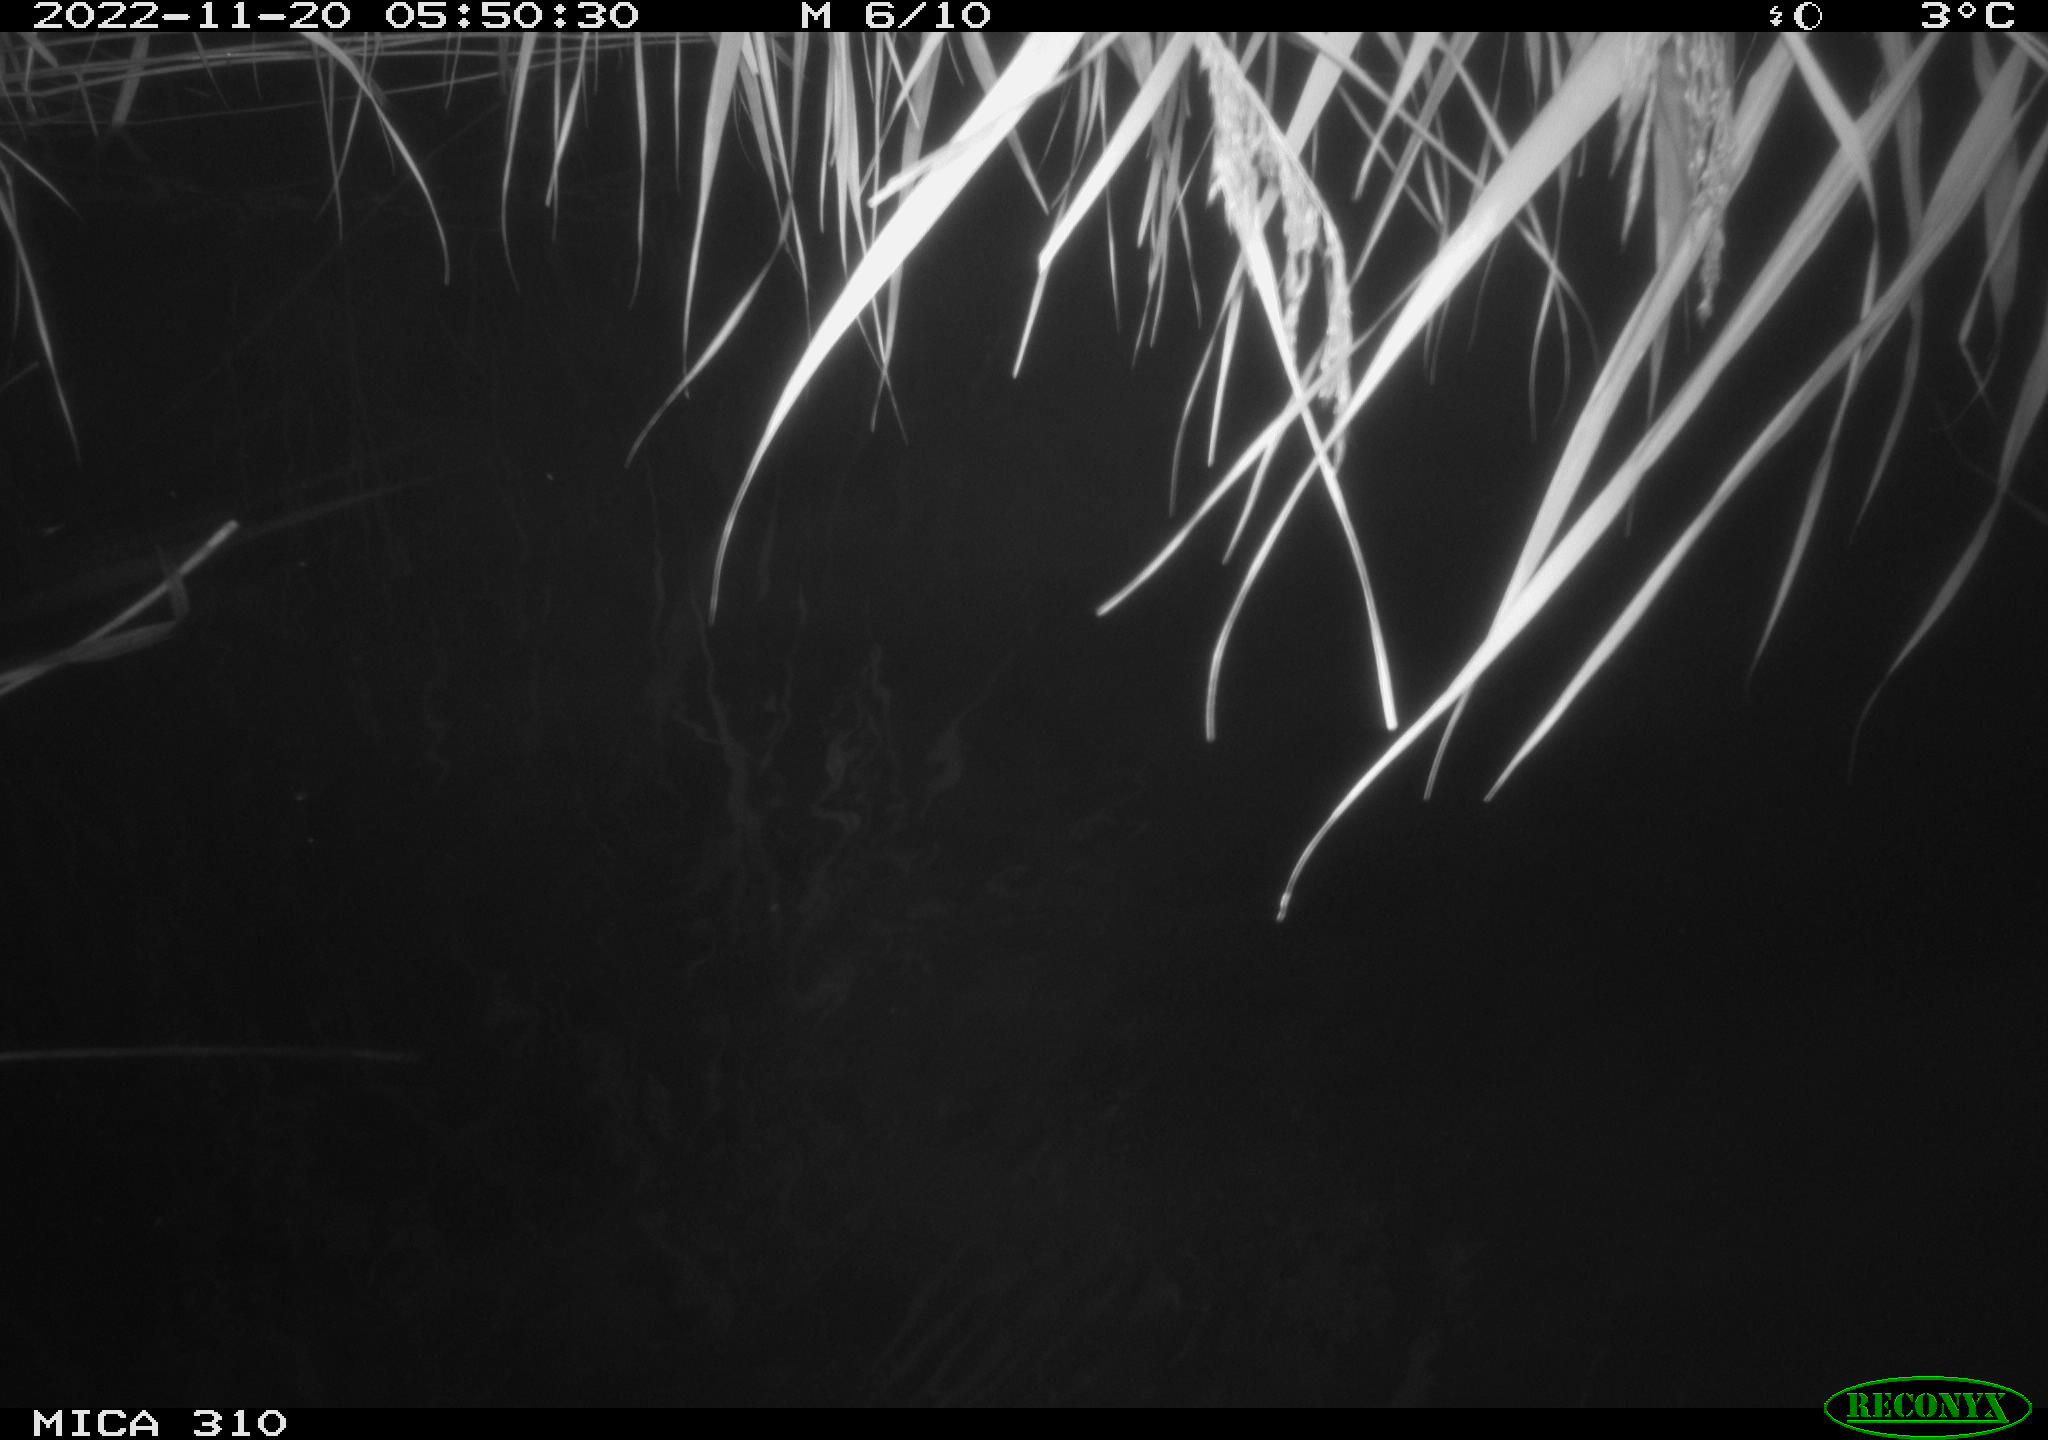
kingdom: Animalia
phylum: Chordata
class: Mammalia
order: Rodentia
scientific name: Rodentia
